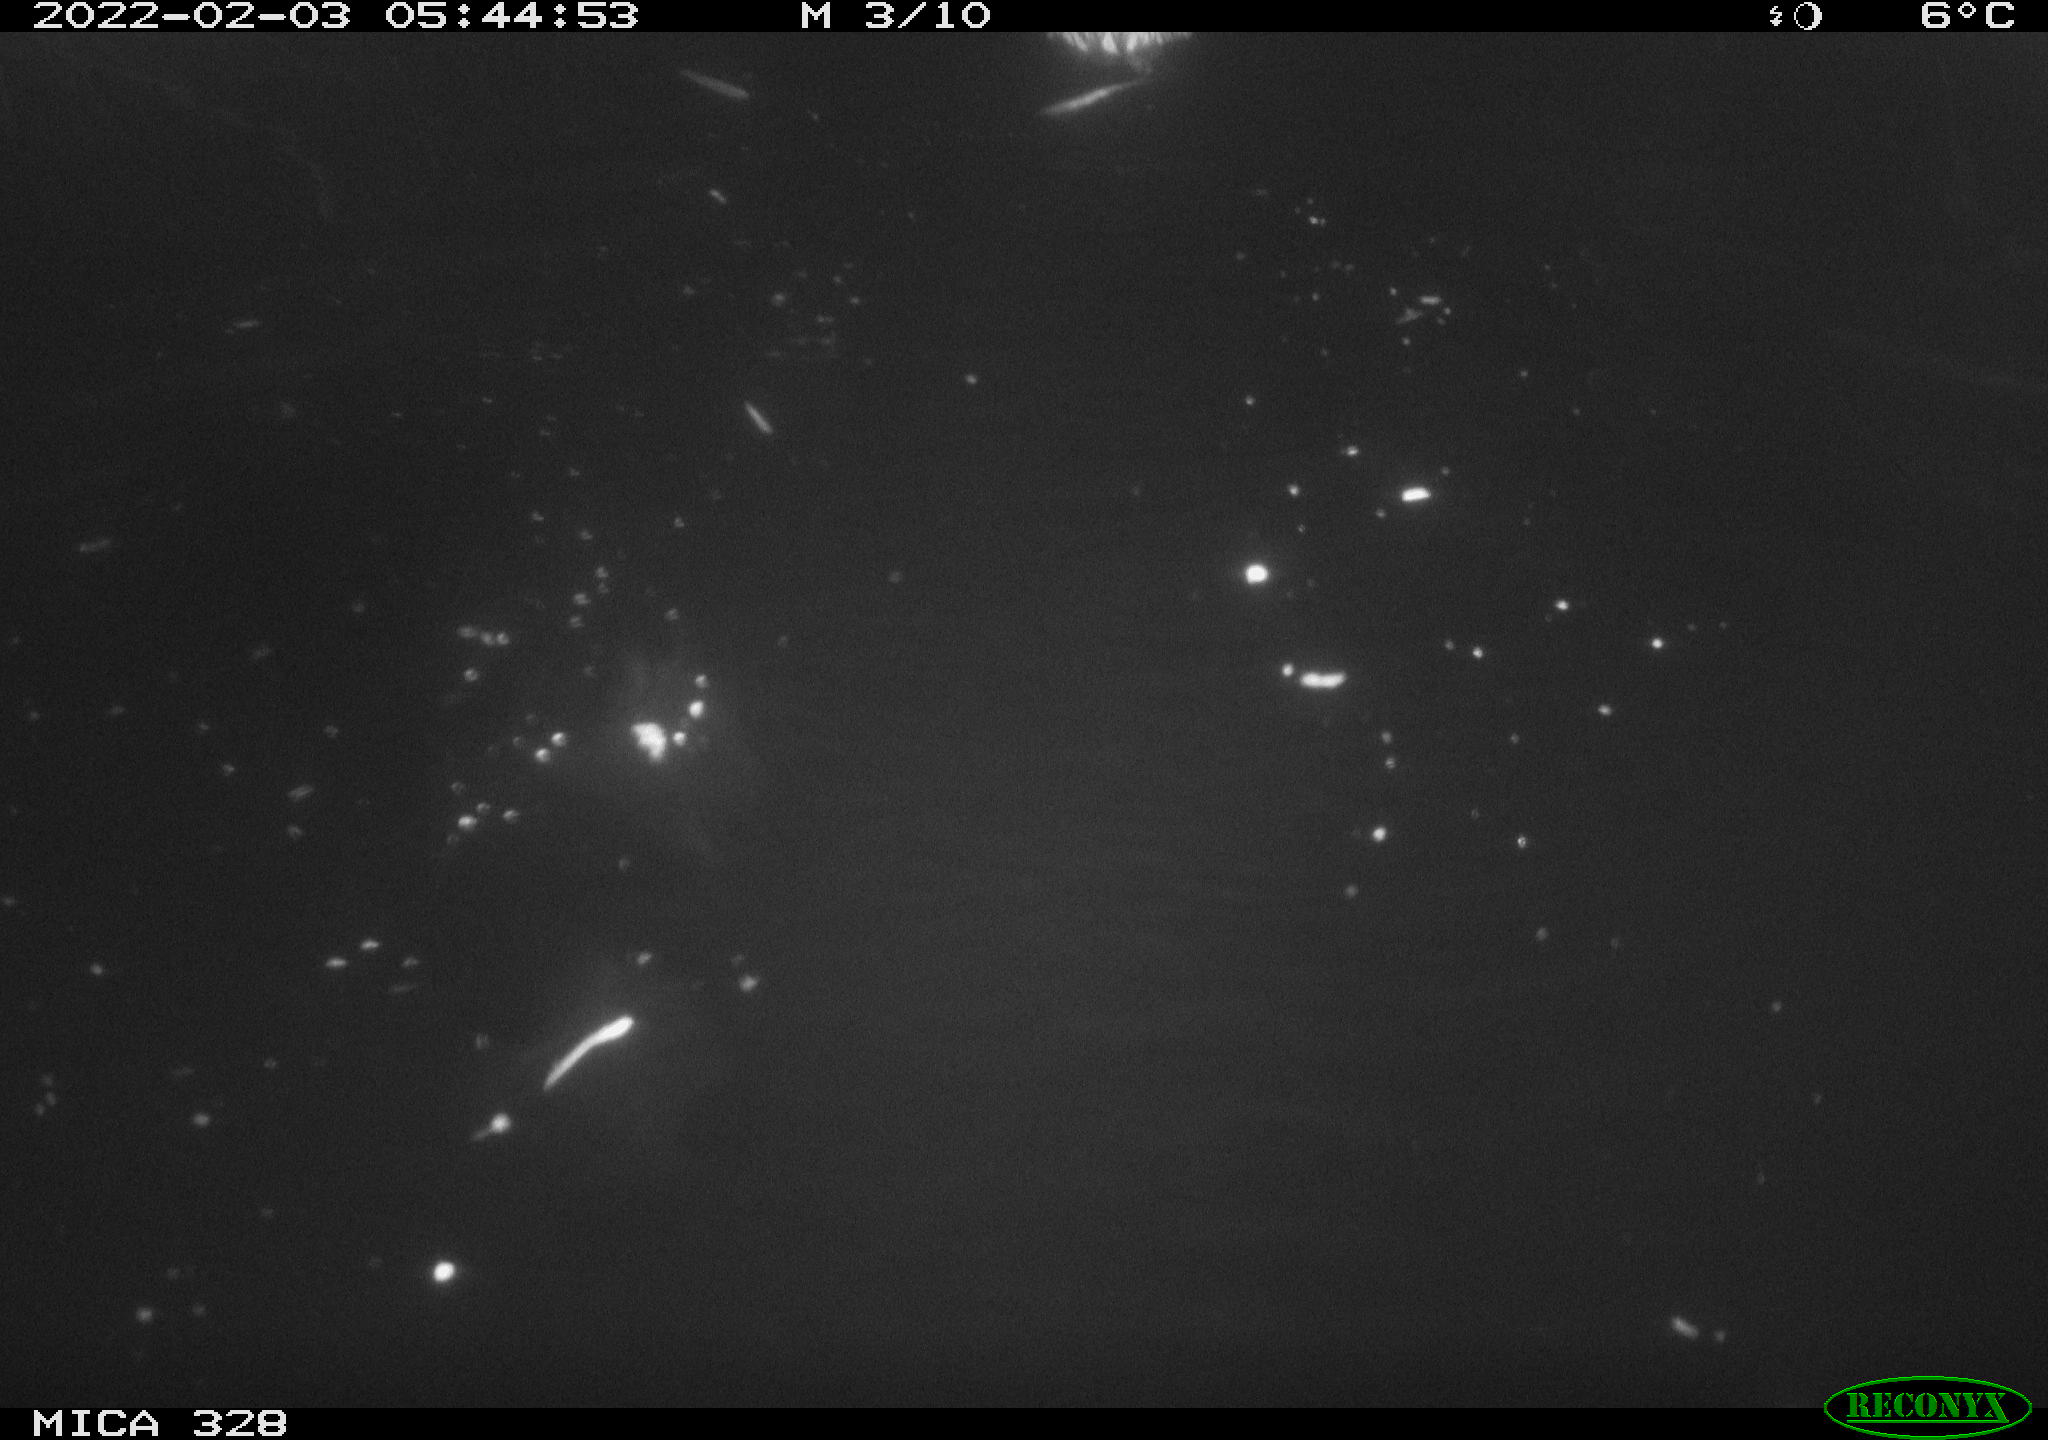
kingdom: Animalia
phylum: Chordata
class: Mammalia
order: Rodentia
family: Cricetidae
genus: Ondatra
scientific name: Ondatra zibethicus
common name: Muskrat
